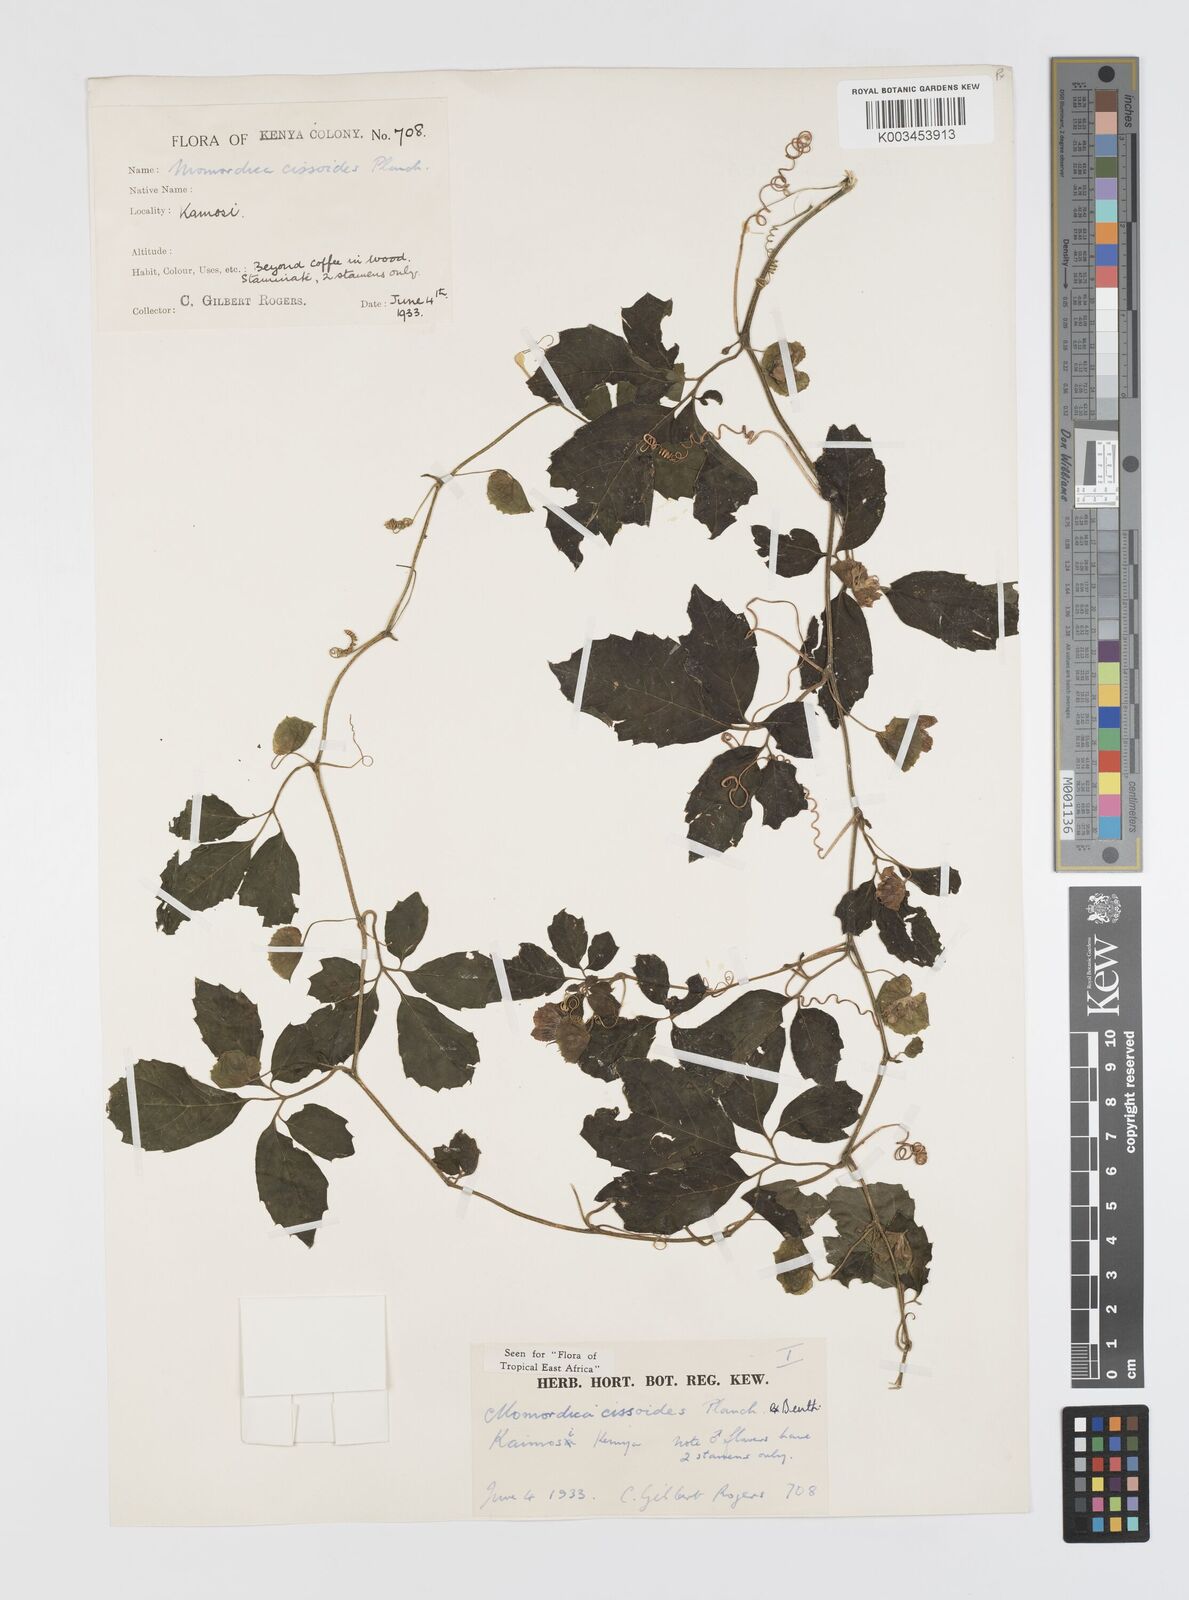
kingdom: Plantae
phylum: Tracheophyta
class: Magnoliopsida
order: Cucurbitales
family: Cucurbitaceae
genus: Momordica
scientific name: Momordica cissoides
